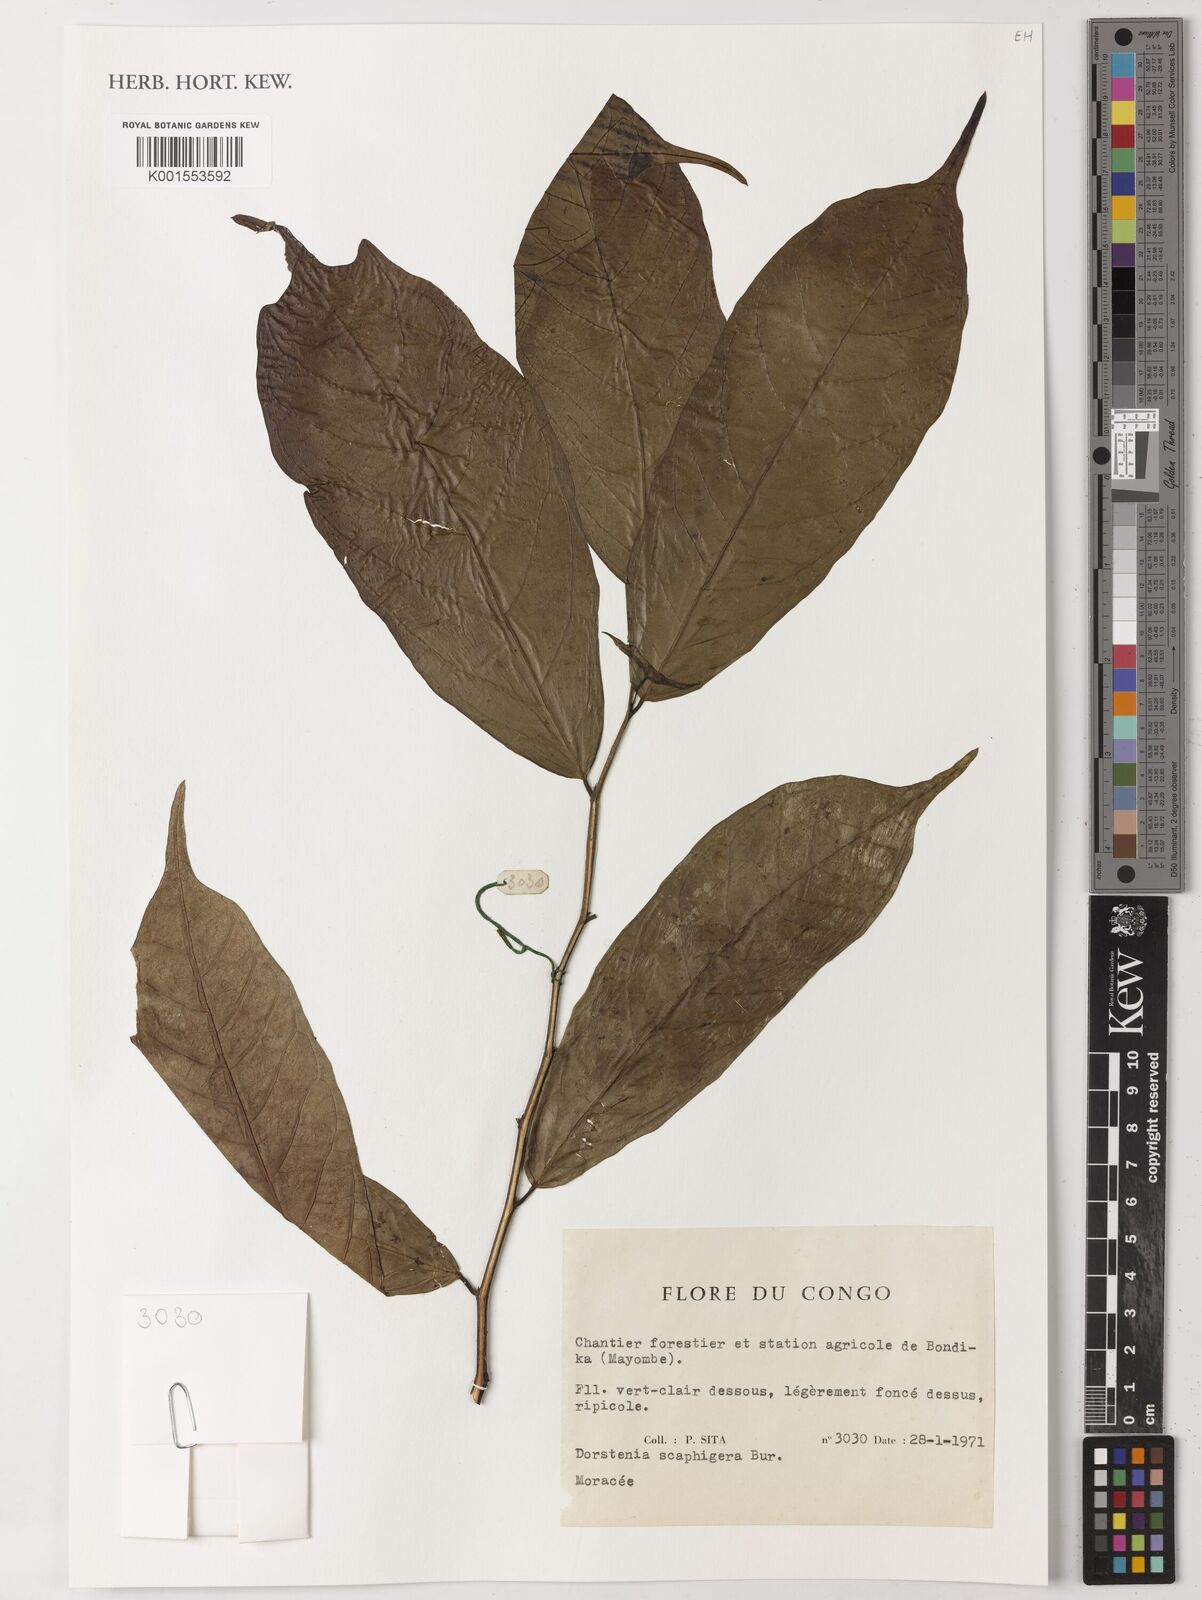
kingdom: Plantae
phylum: Tracheophyta
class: Magnoliopsida
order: Rosales
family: Moraceae
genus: Hijmania
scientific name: Hijmania scaphigera
